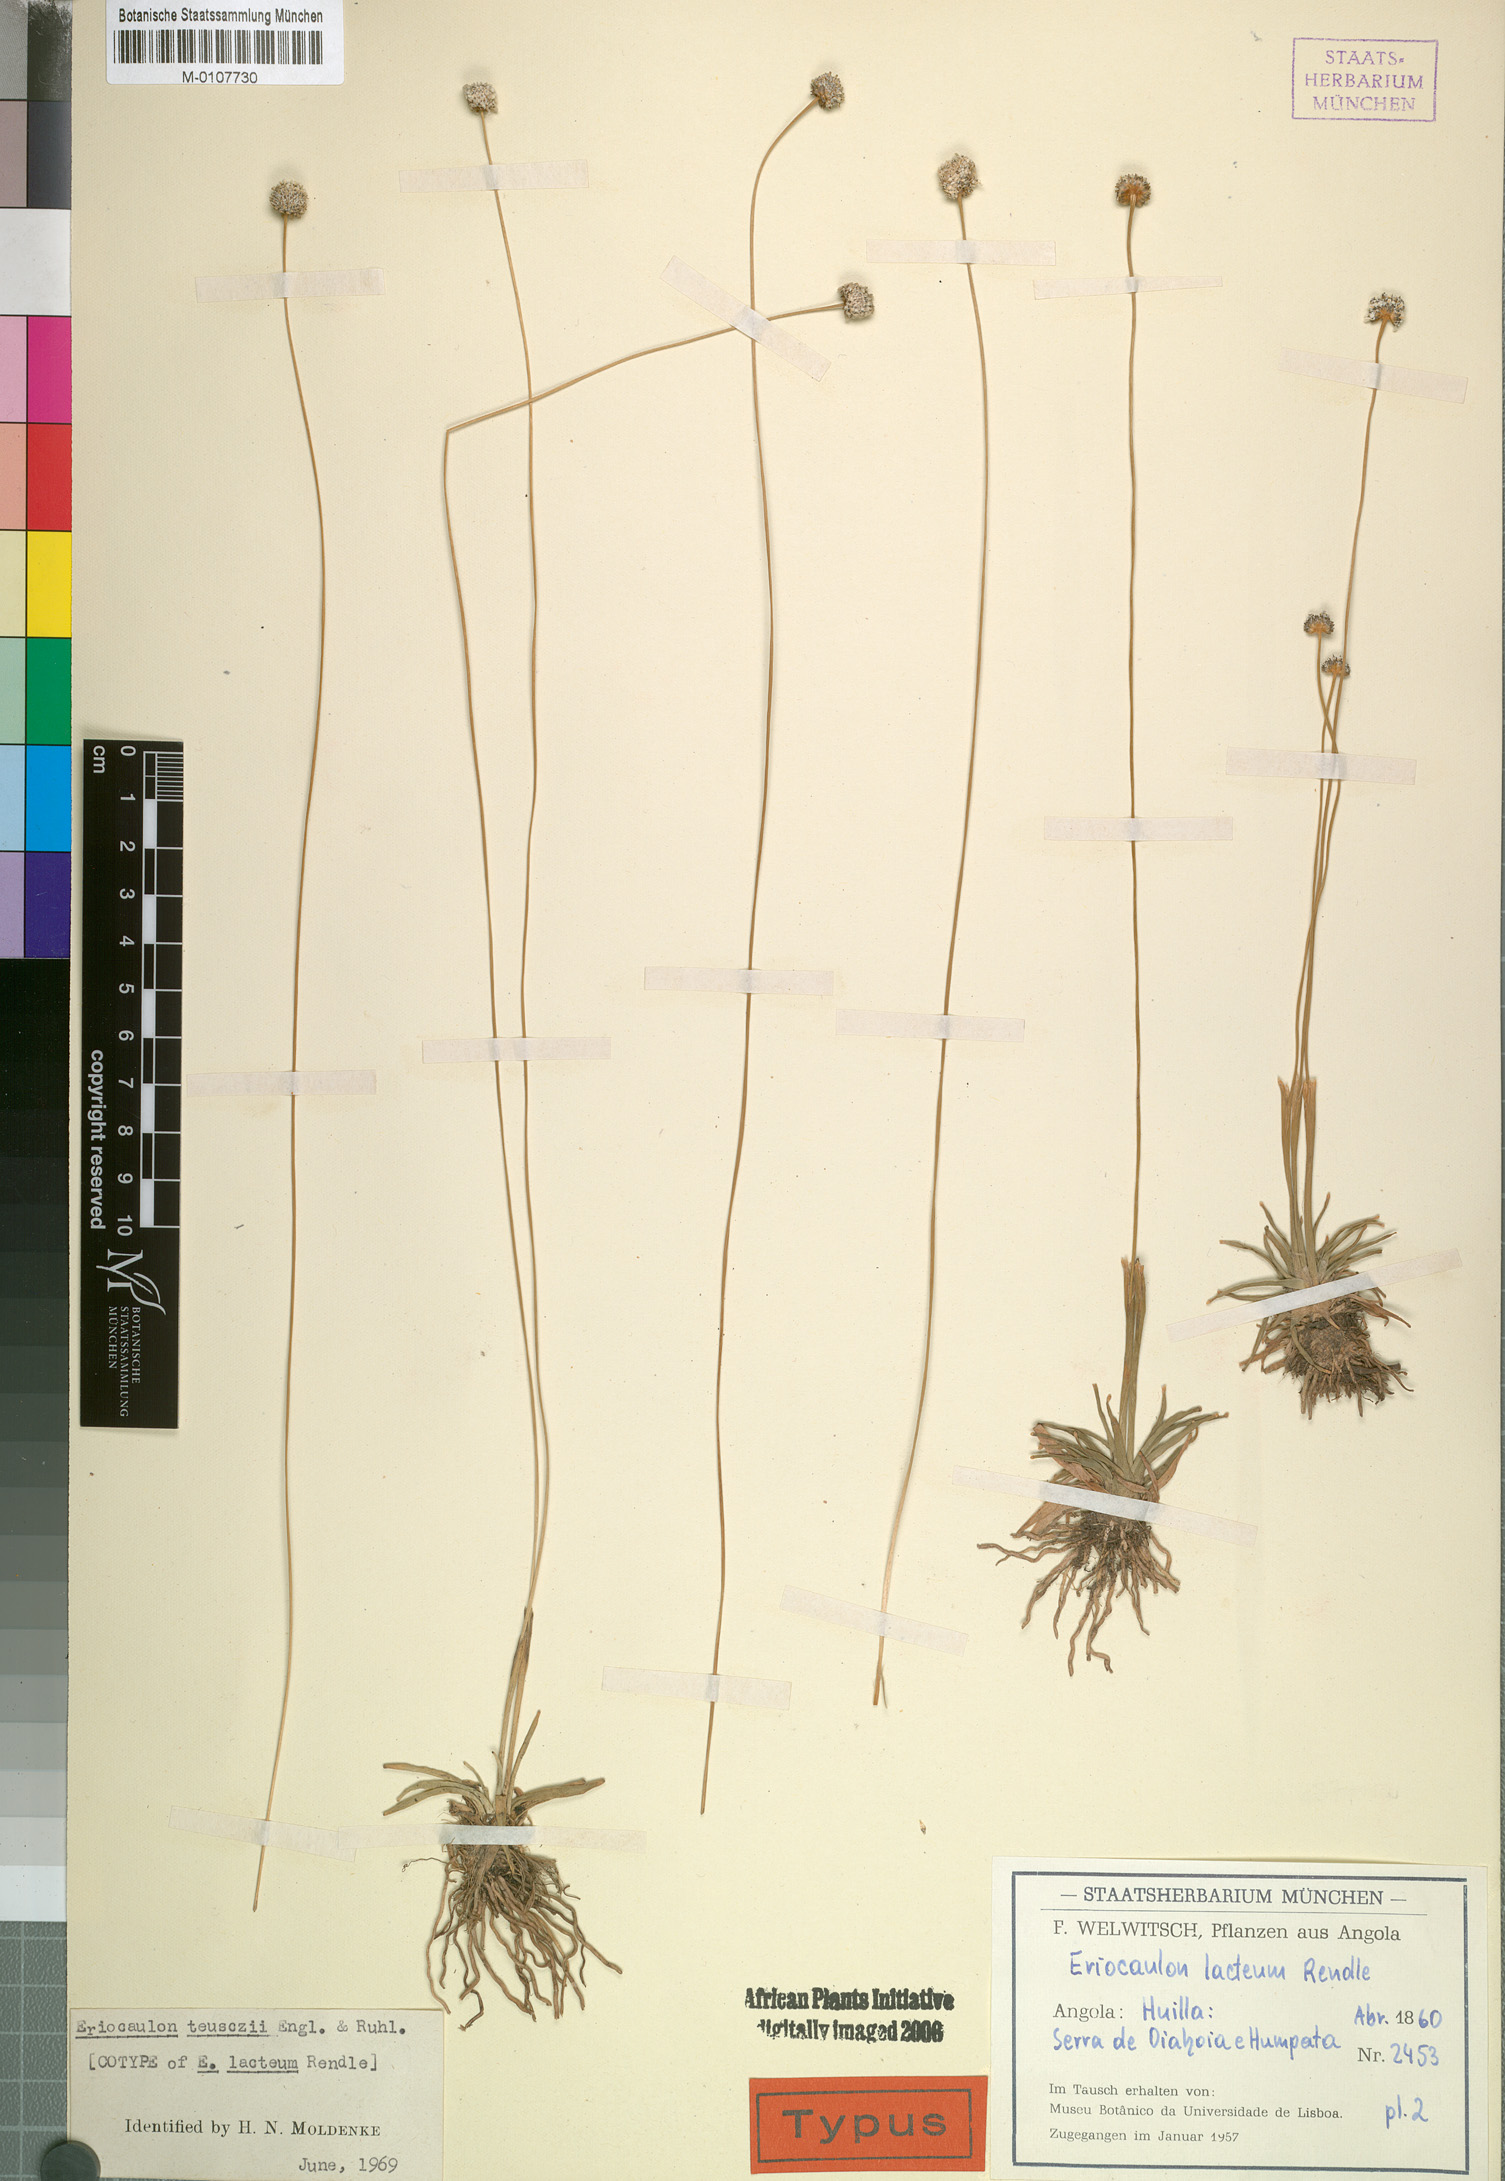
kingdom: Plantae
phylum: Tracheophyta
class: Liliopsida
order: Poales
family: Eriocaulaceae
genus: Eriocaulon
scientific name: Eriocaulon teusczii
